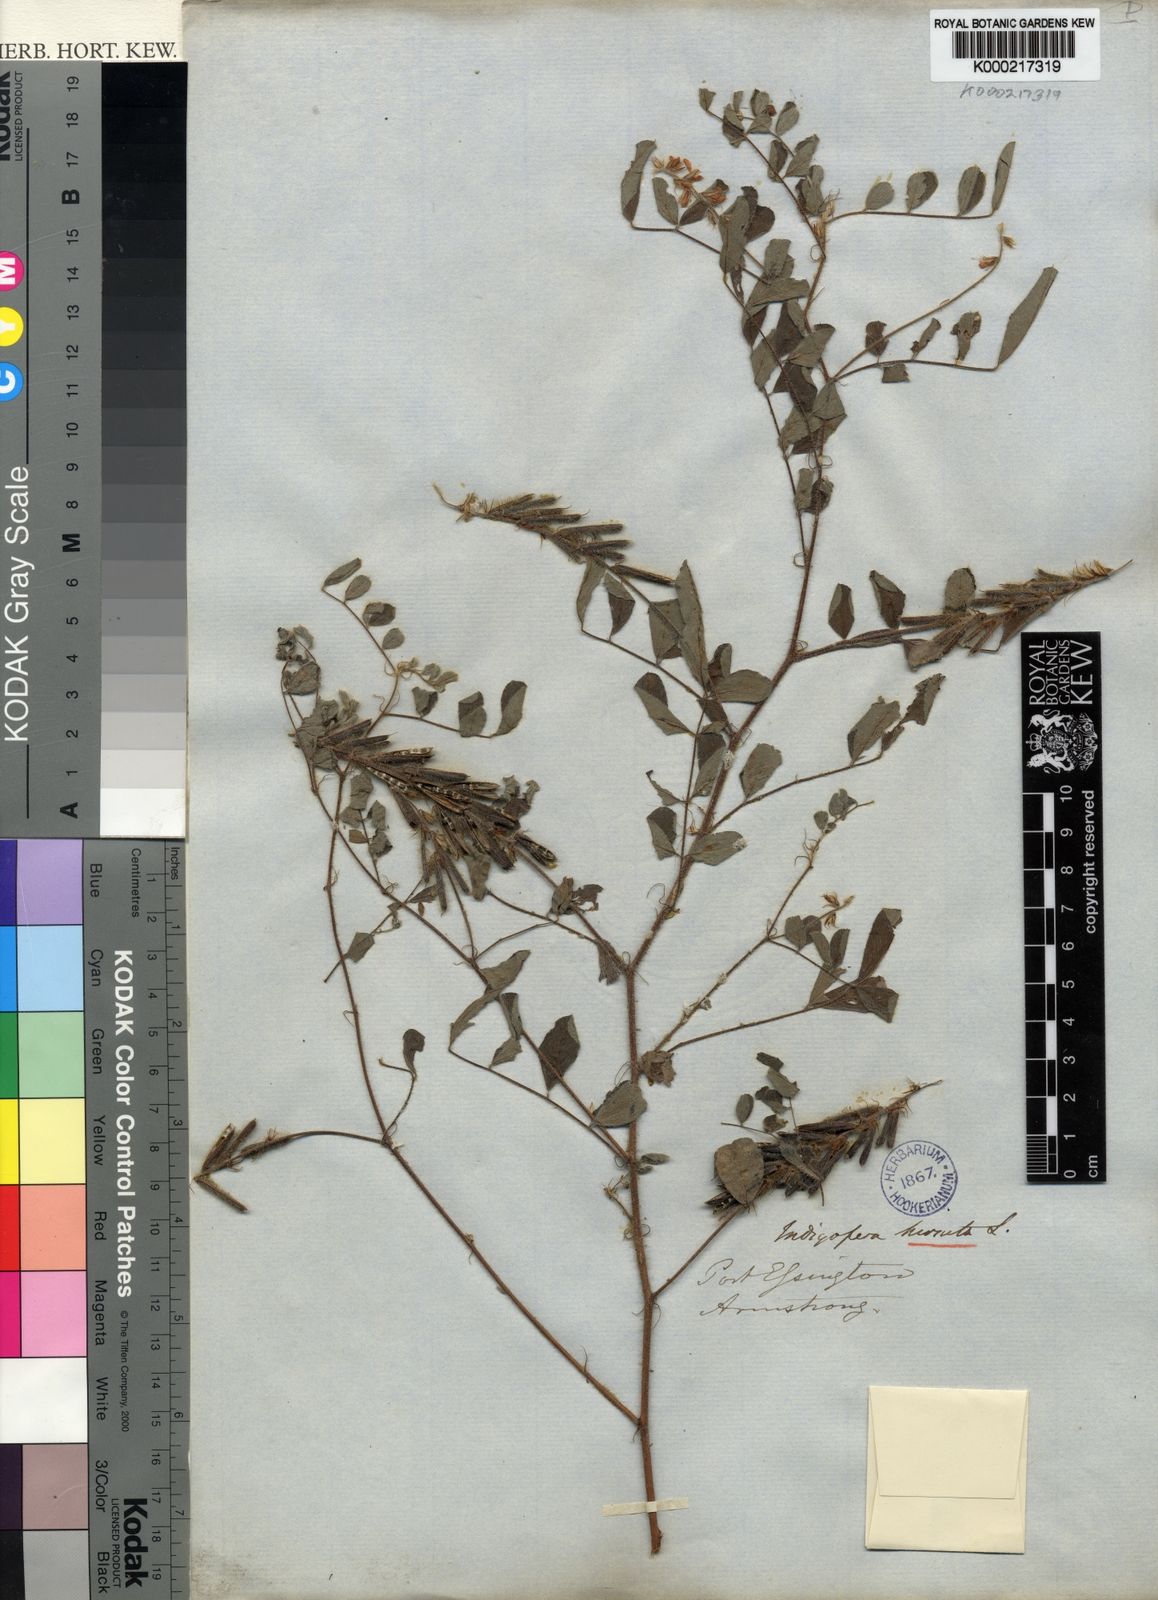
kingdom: Plantae
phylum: Tracheophyta
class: Magnoliopsida
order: Fabales
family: Fabaceae
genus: Indigofera
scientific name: Indigofera hirsuta
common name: Hairy indigo
